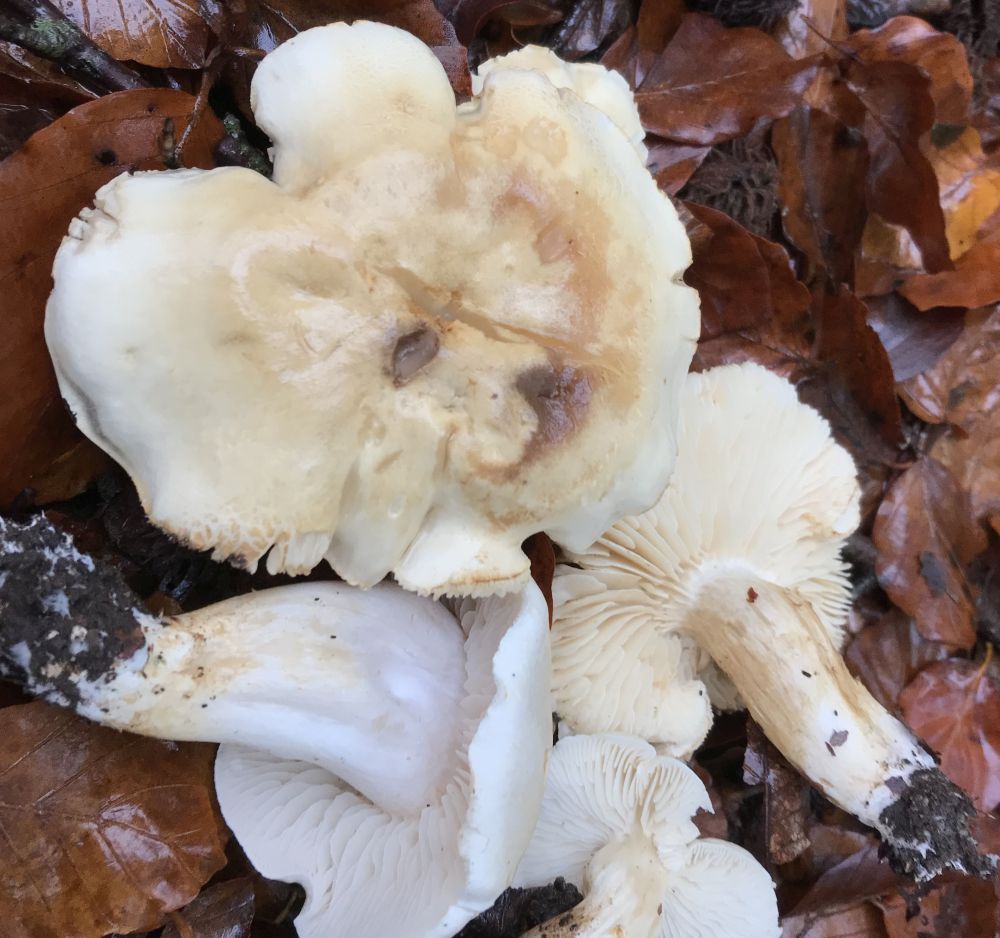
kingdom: Fungi
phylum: Basidiomycota
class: Agaricomycetes
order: Agaricales
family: Tricholomataceae
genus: Tricholoma
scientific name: Tricholoma lascivum
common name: stinkende ridderhat
